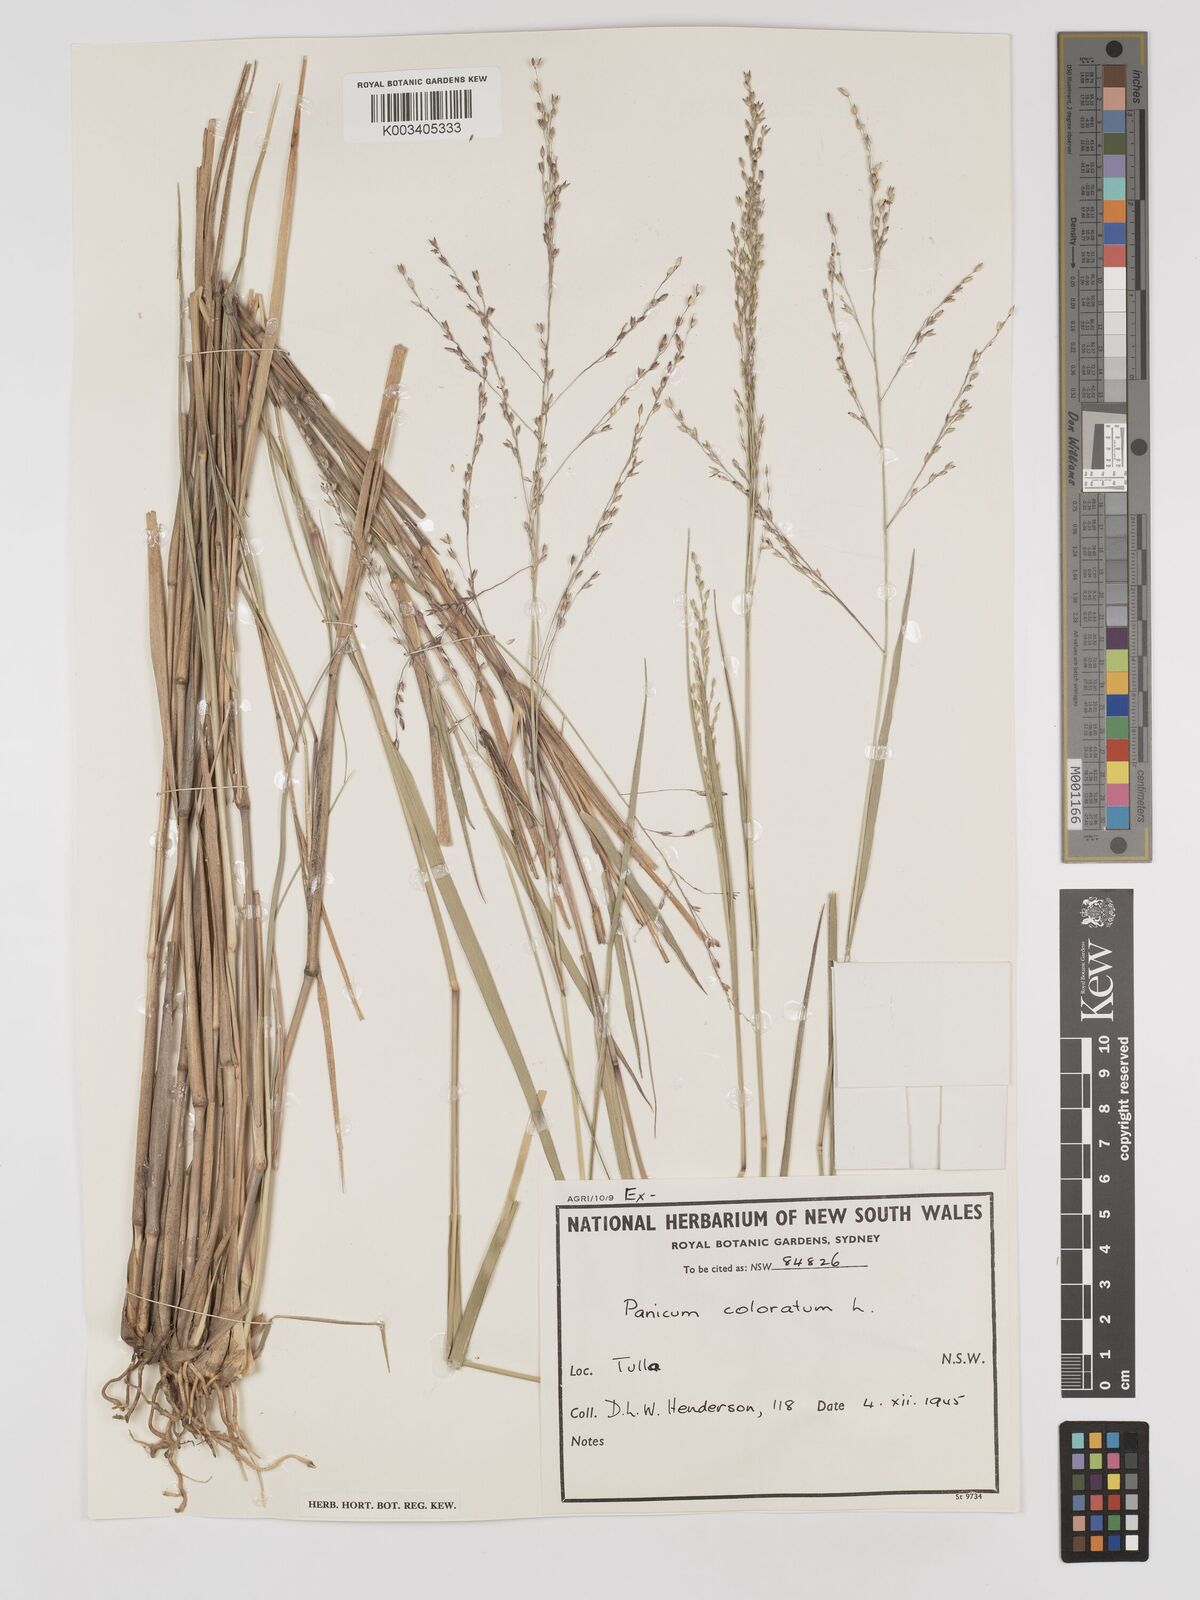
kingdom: Plantae
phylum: Tracheophyta
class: Liliopsida
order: Poales
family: Poaceae
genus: Panicum
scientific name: Panicum coloratum
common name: Kleingrass
